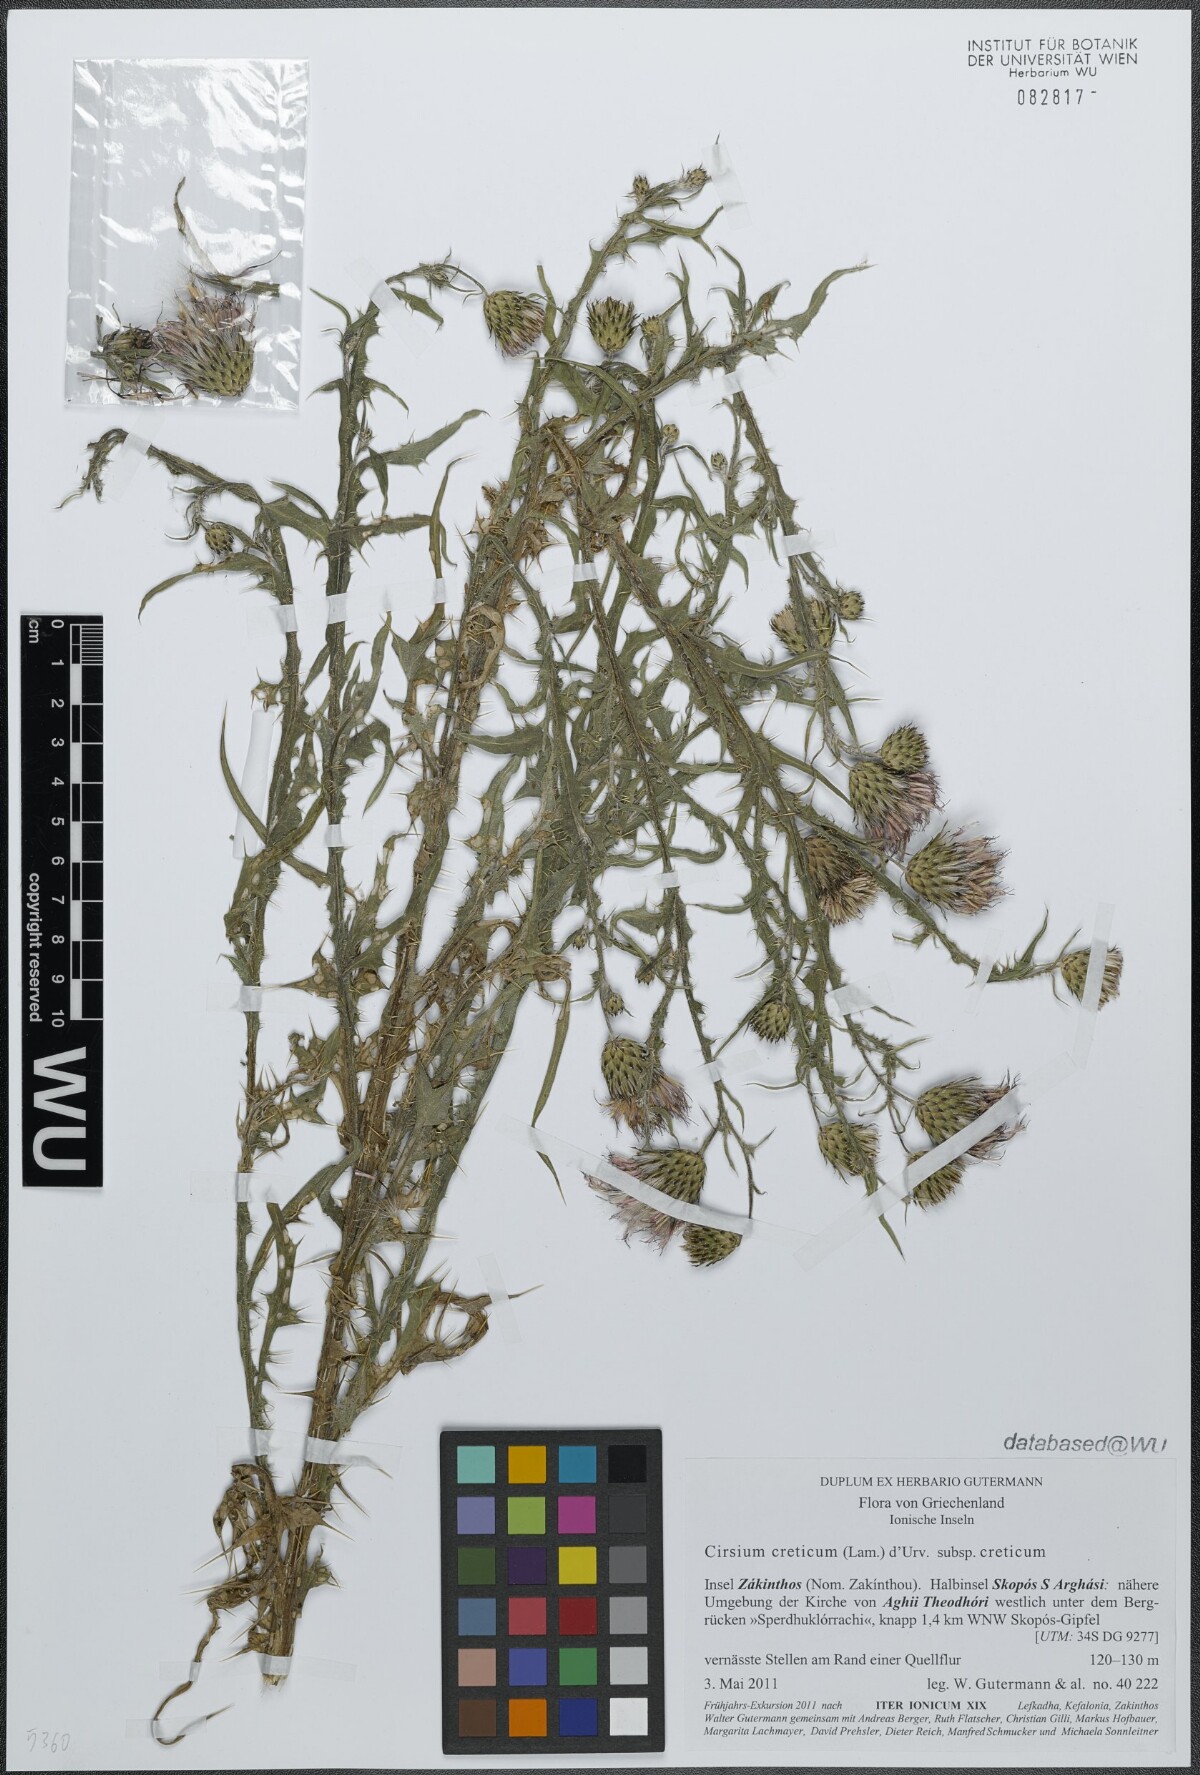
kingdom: Plantae
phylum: Tracheophyta
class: Magnoliopsida
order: Asterales
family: Asteraceae
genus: Cirsium
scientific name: Cirsium creticum
